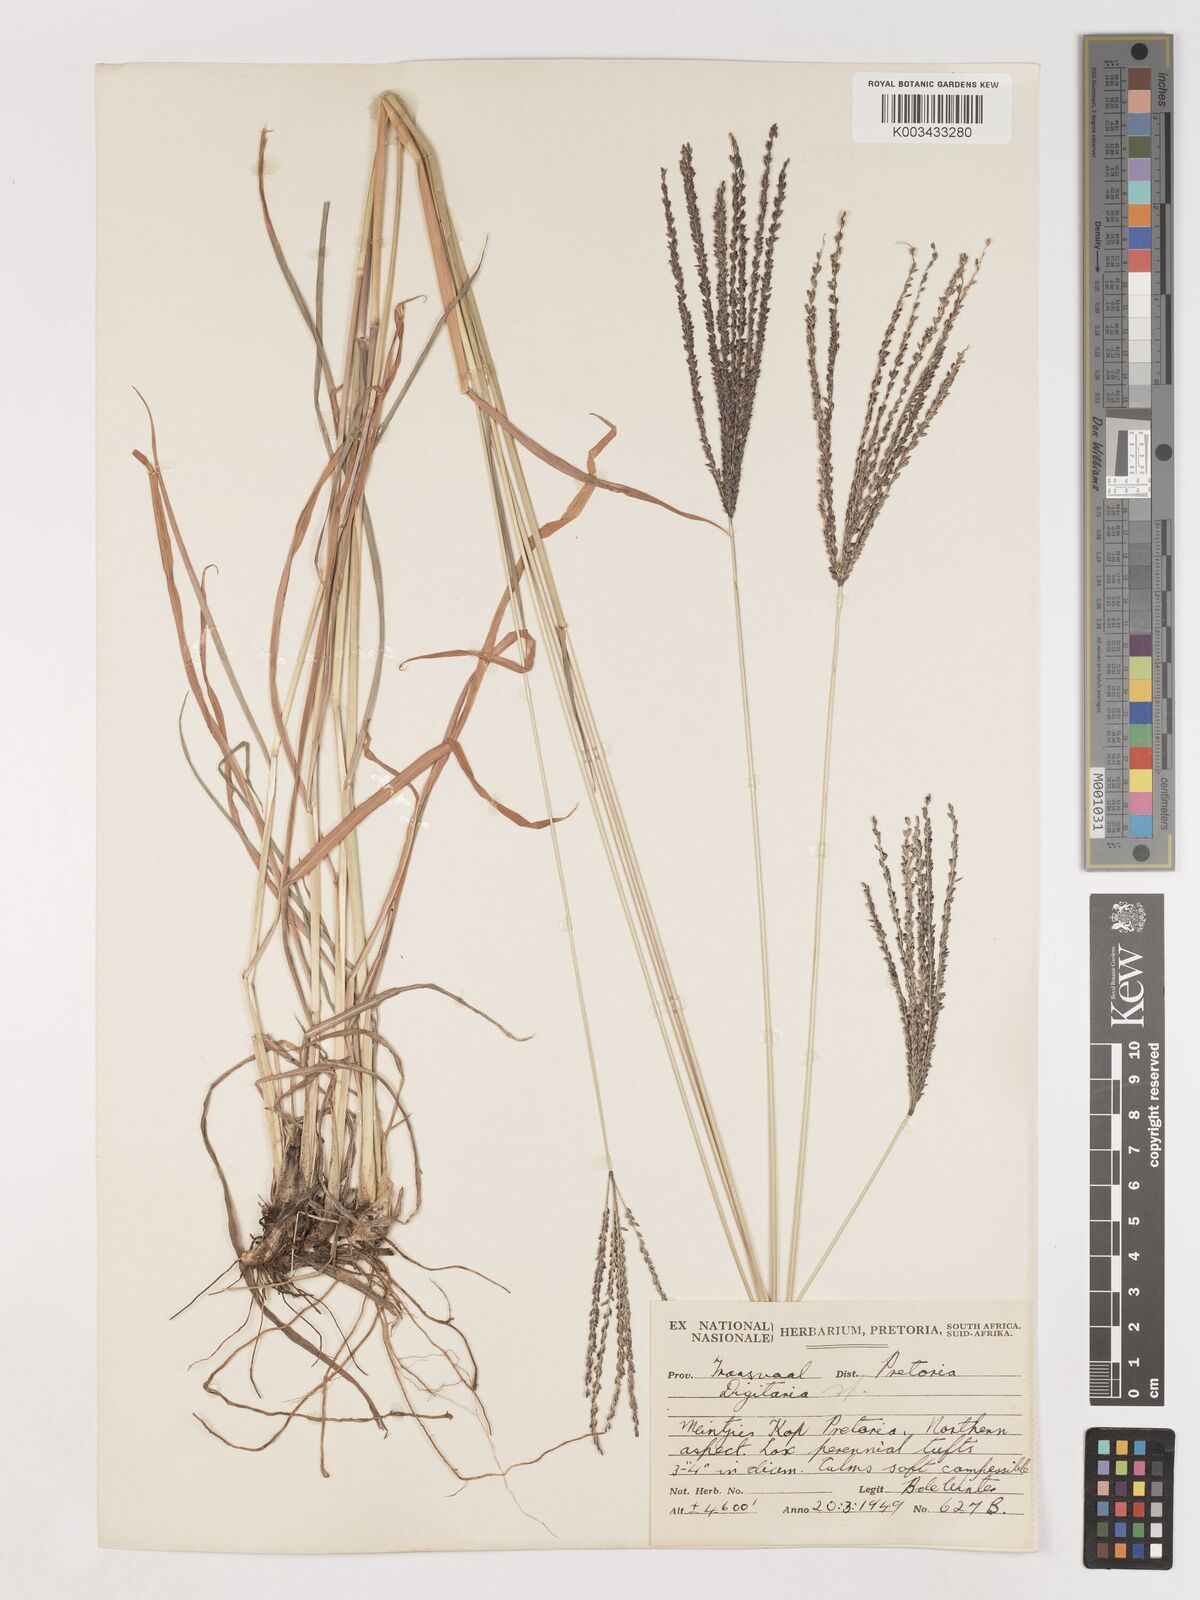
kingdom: Plantae
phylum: Tracheophyta
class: Liliopsida
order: Poales
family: Poaceae
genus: Digitaria
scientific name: Digitaria eriantha
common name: Digitgrass
